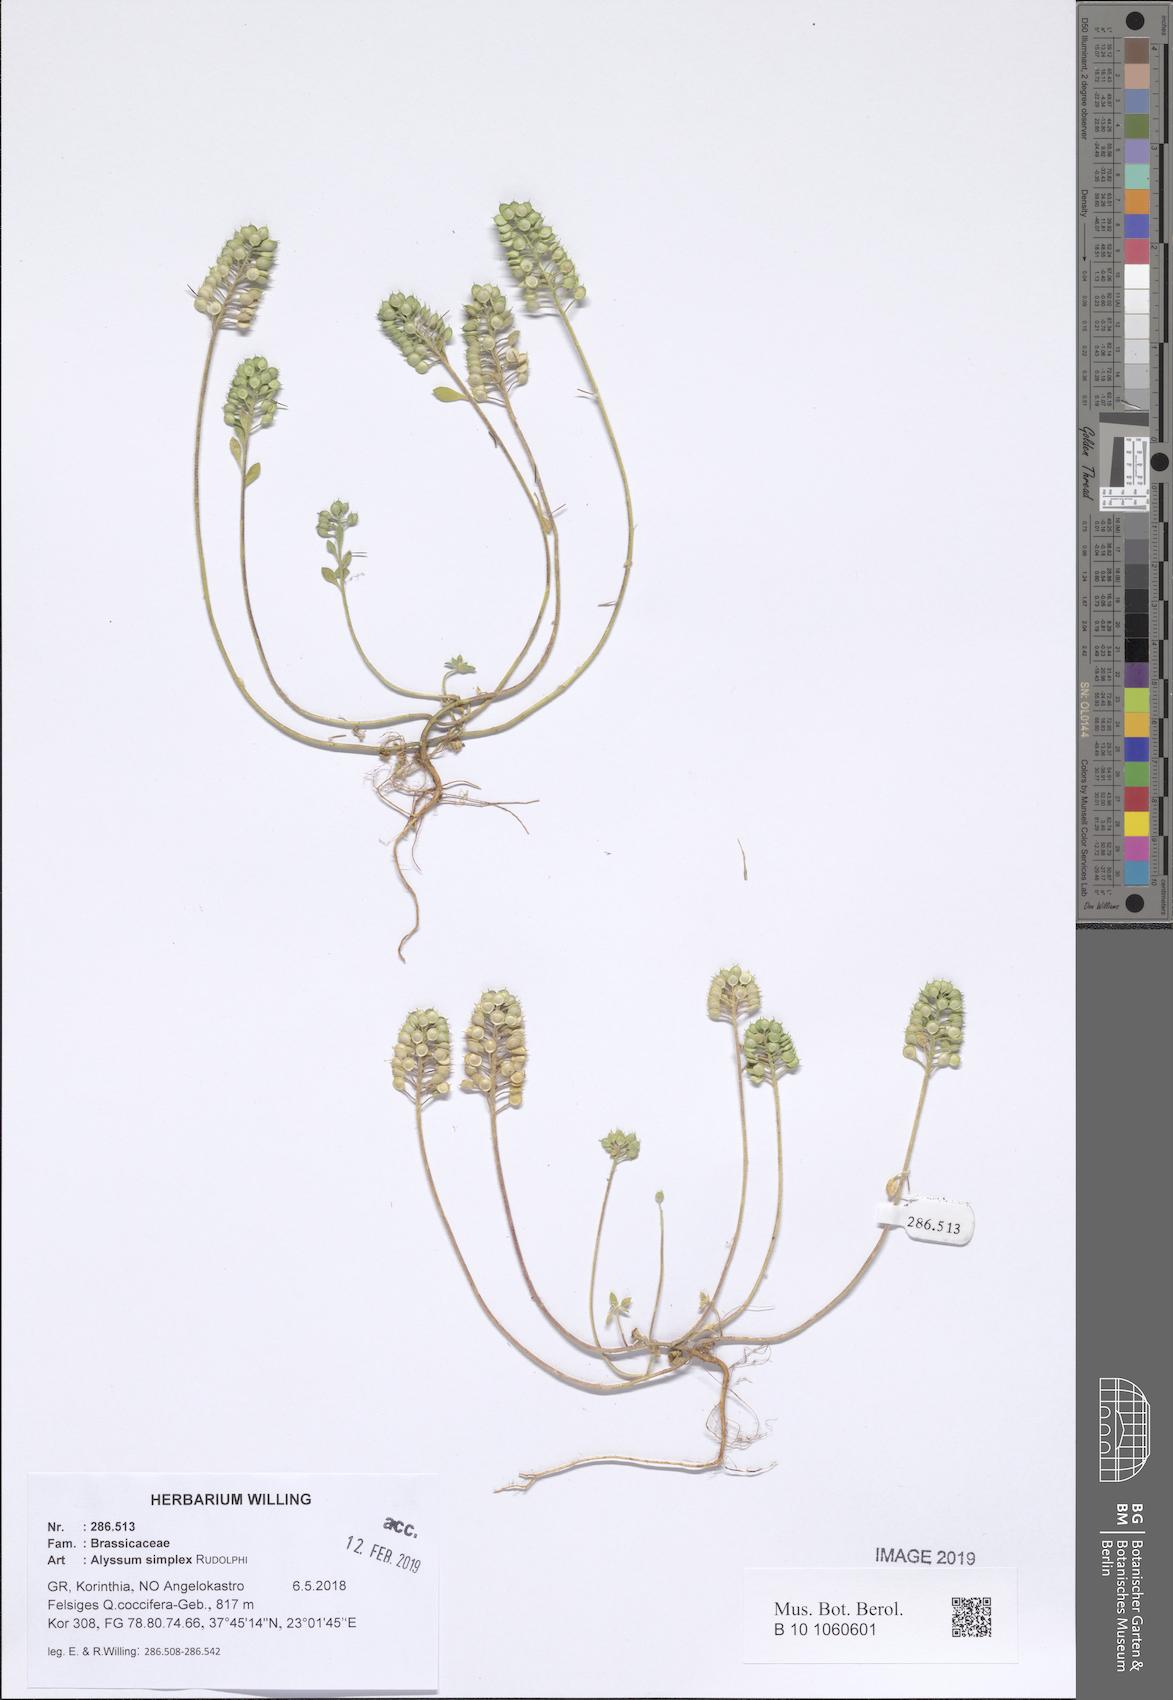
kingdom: Plantae
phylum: Tracheophyta
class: Magnoliopsida
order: Brassicales
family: Brassicaceae
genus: Alyssum
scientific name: Alyssum simplex
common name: Alyssum
